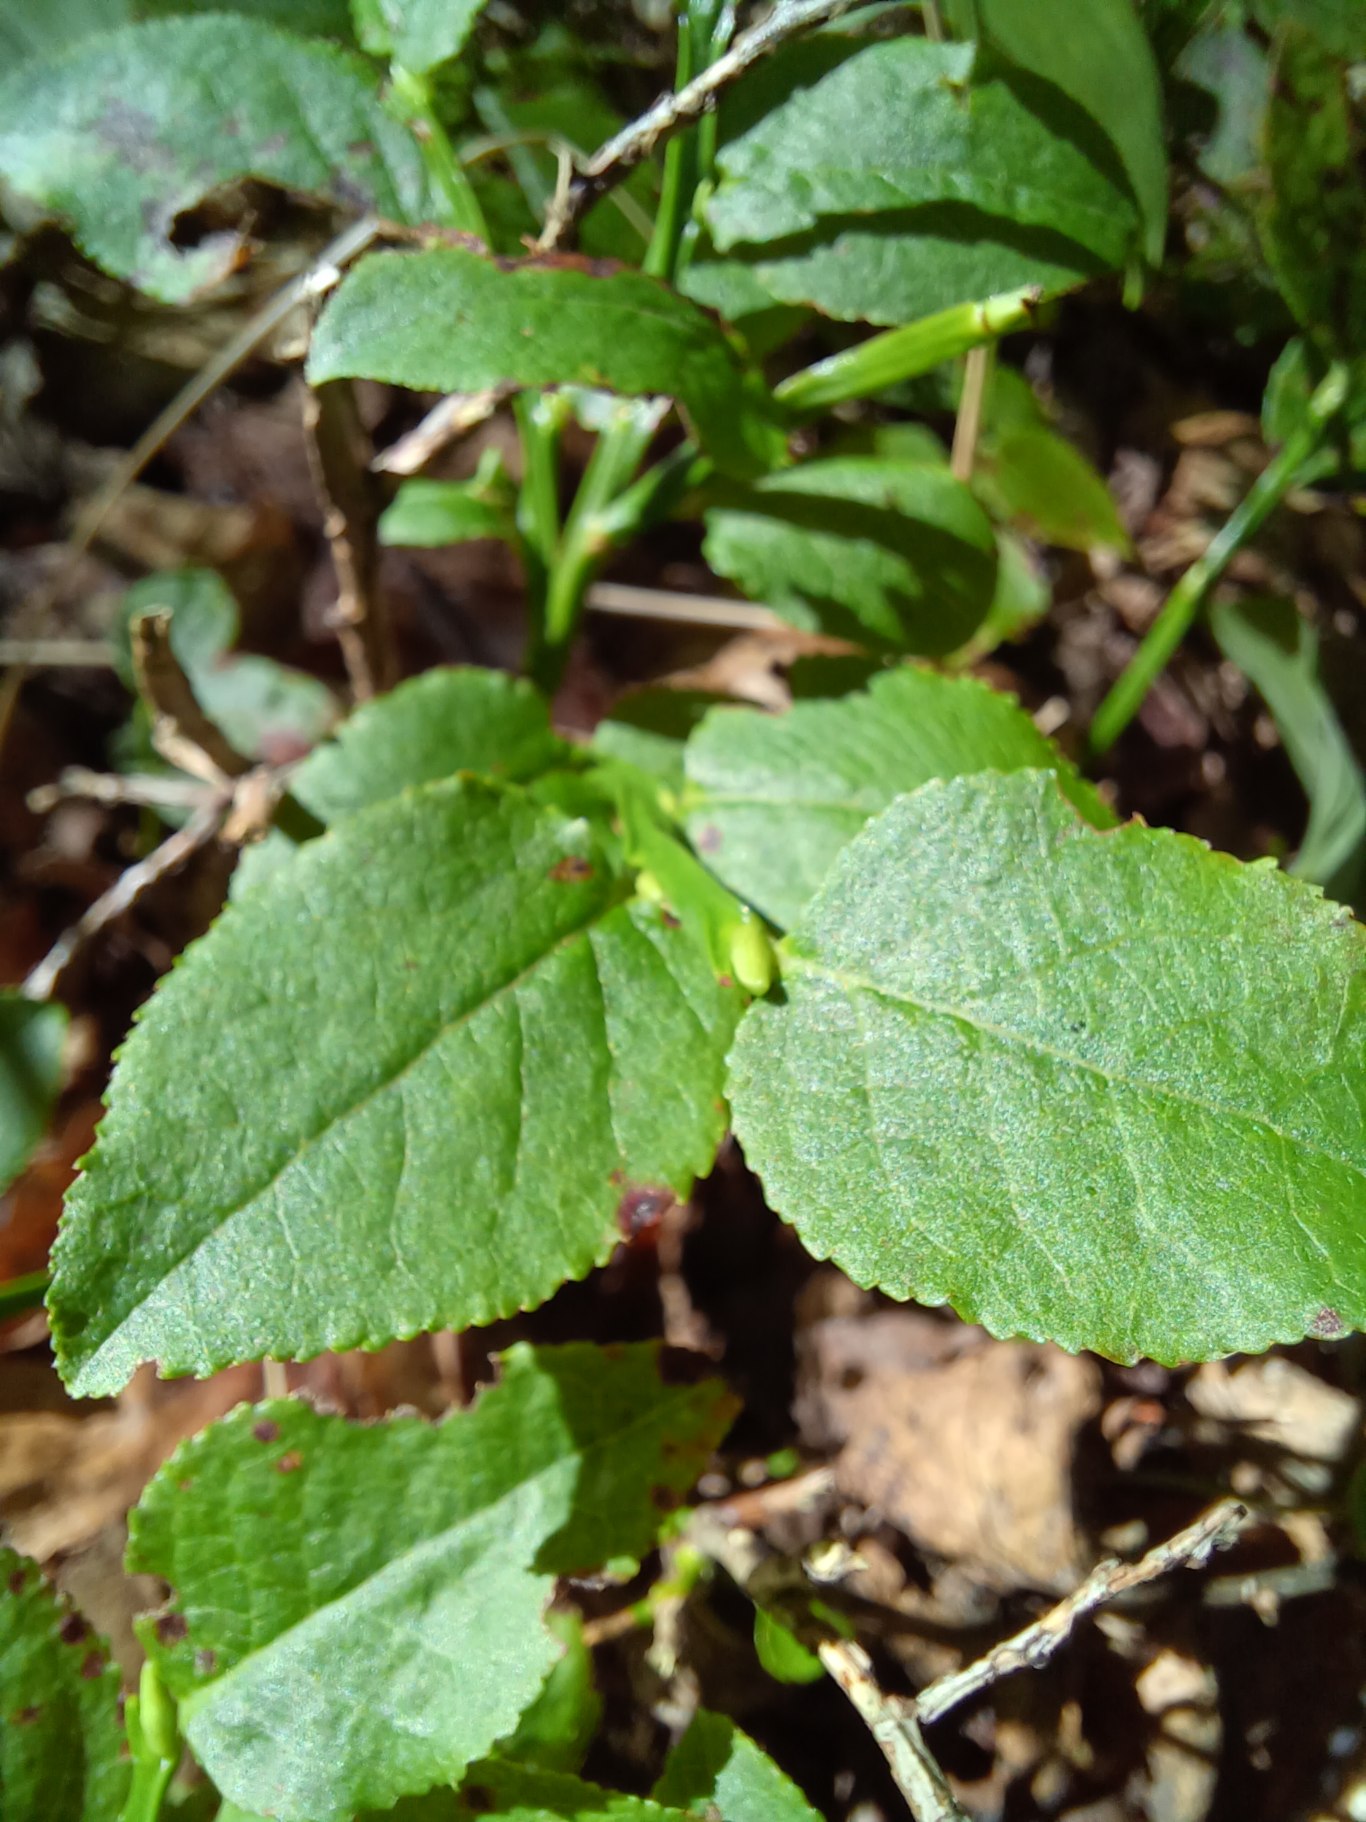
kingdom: Plantae
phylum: Tracheophyta
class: Magnoliopsida
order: Ericales
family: Ericaceae
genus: Vaccinium
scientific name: Vaccinium myrtillus
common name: Blåbær
